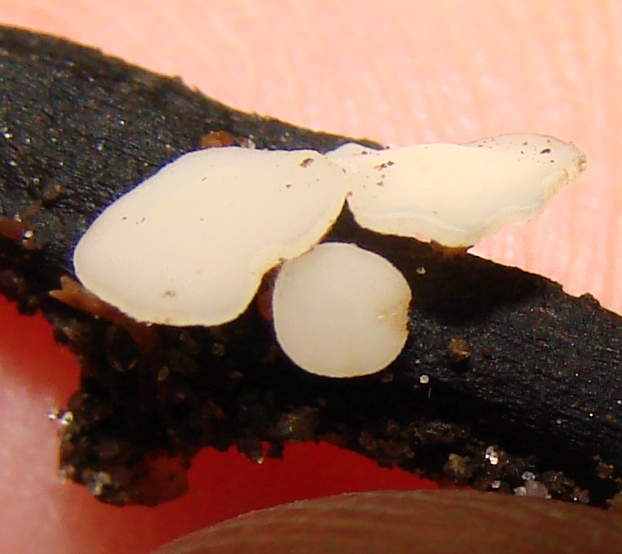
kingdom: Fungi
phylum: Ascomycota
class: Leotiomycetes
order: Helotiales
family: Helotiaceae
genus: Hymenoscyphus
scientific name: Hymenoscyphus fraxineus
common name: asketoptørre-stilkskive
